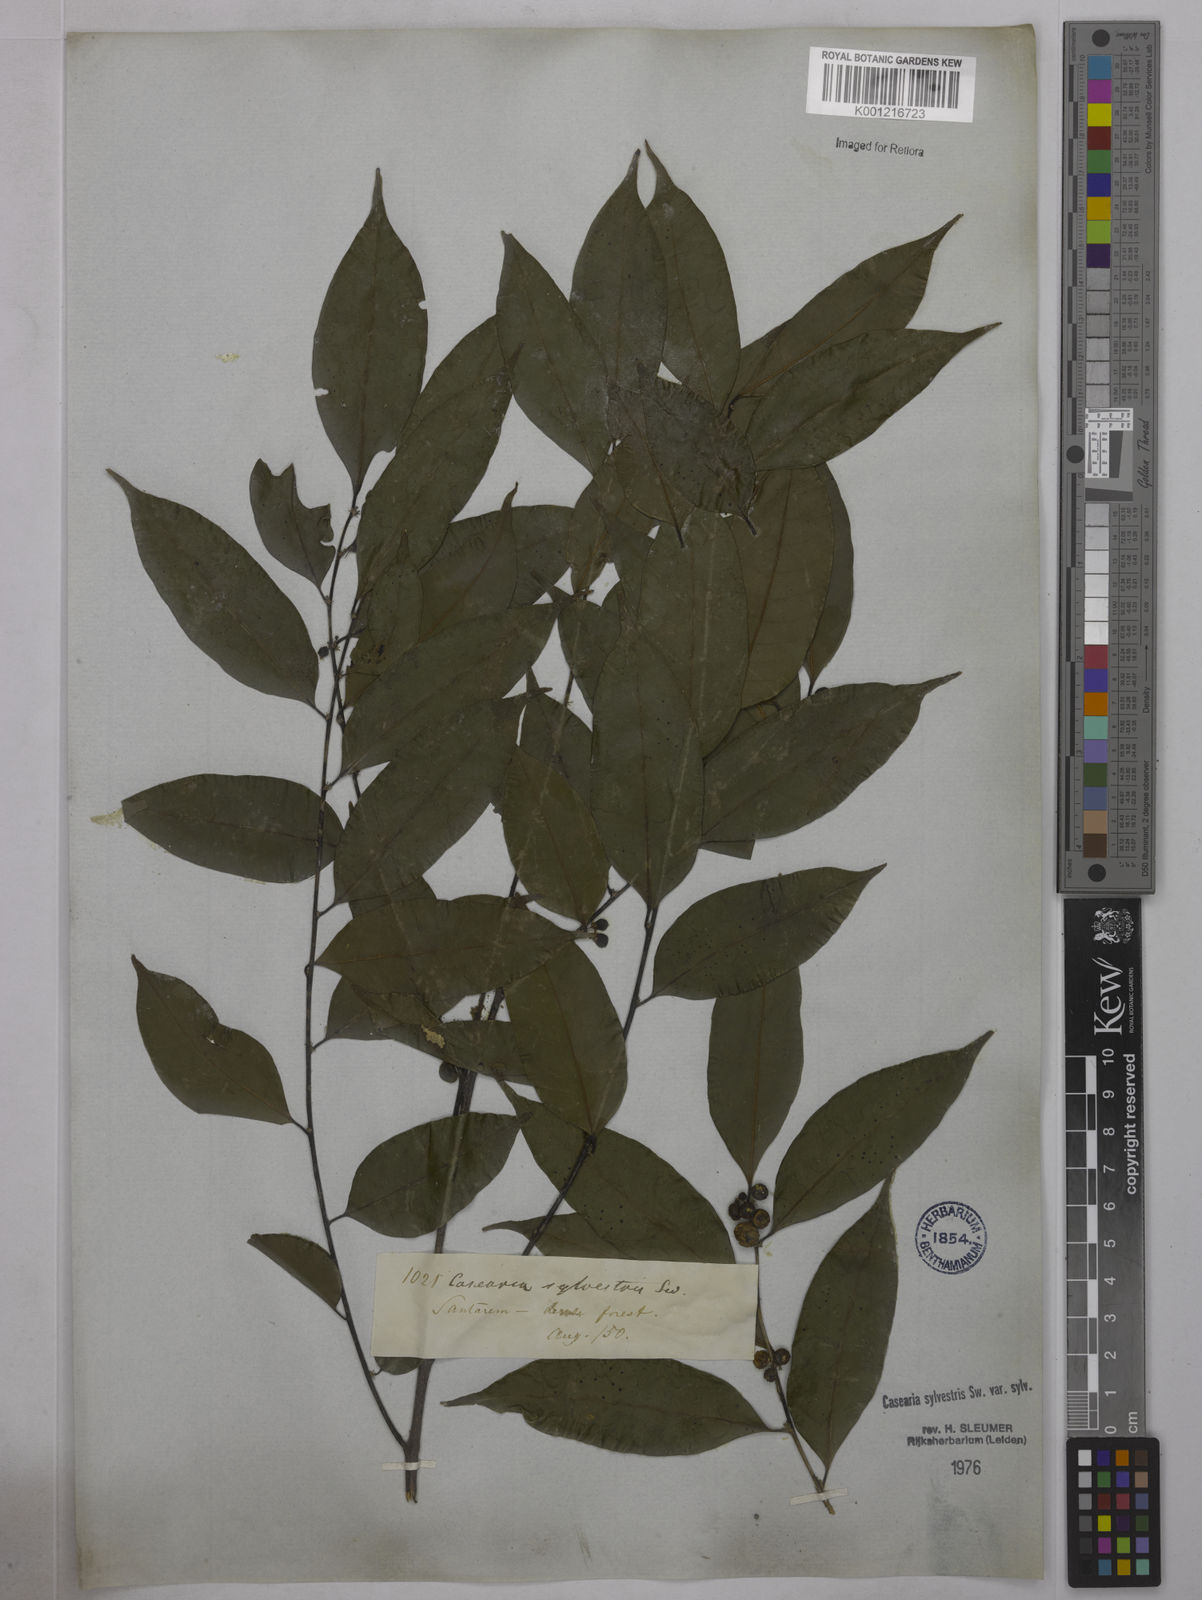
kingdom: Plantae
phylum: Tracheophyta
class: Magnoliopsida
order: Malpighiales
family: Salicaceae
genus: Casearia
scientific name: Casearia sylvestris
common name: Wild sage
